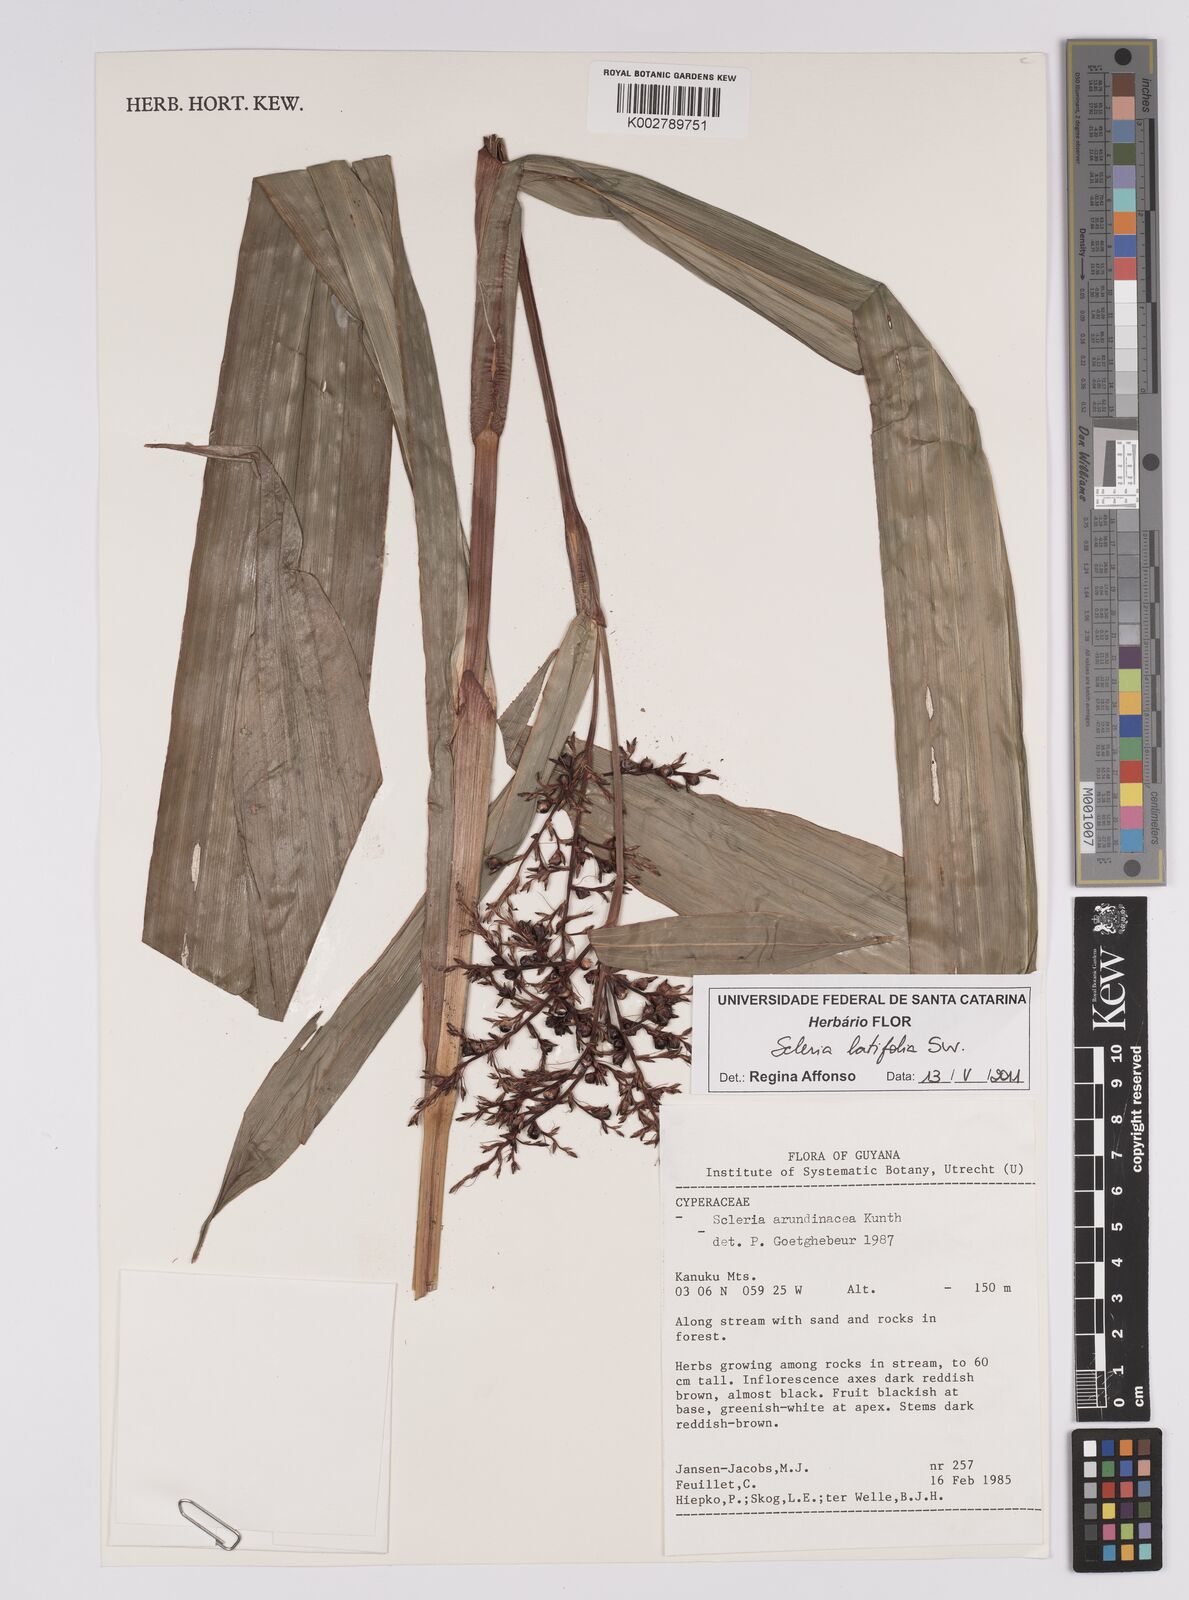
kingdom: Plantae
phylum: Tracheophyta
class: Liliopsida
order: Poales
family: Cyperaceae
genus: Scleria
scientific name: Scleria latifolia
